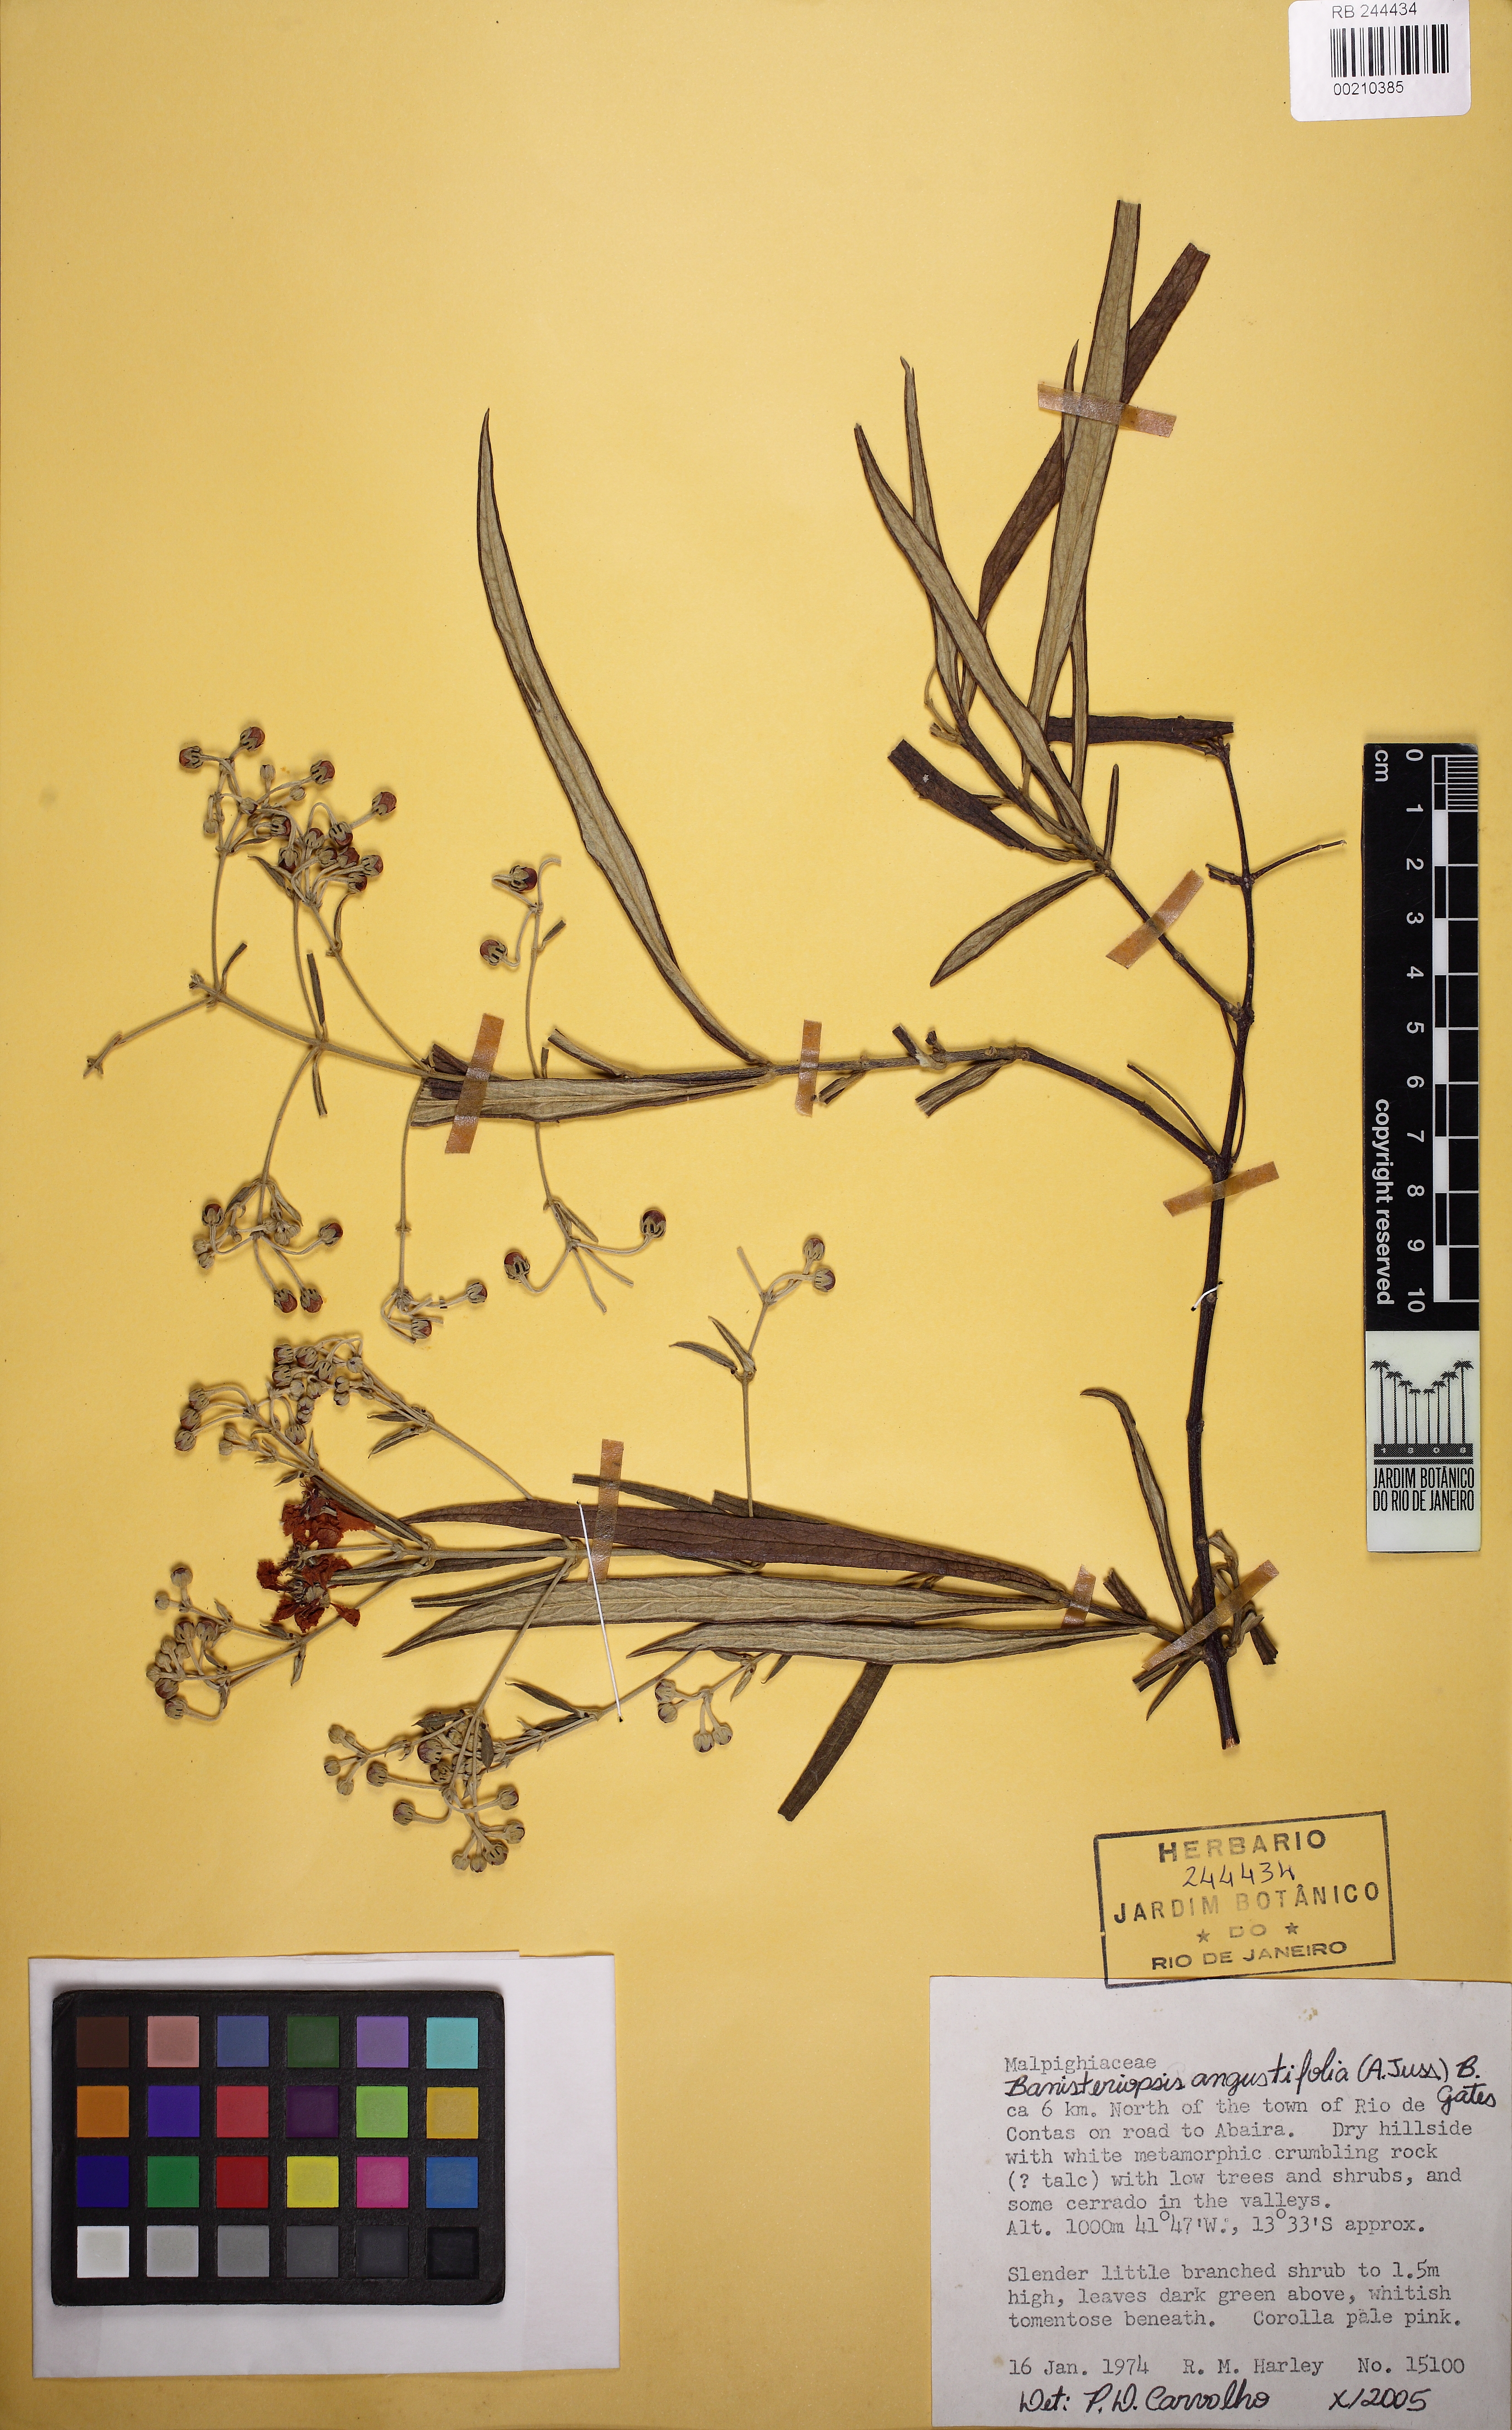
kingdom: Plantae
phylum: Tracheophyta
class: Magnoliopsida
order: Malpighiales
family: Malpighiaceae
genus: Banisteriopsis
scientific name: Banisteriopsis angustifolia
